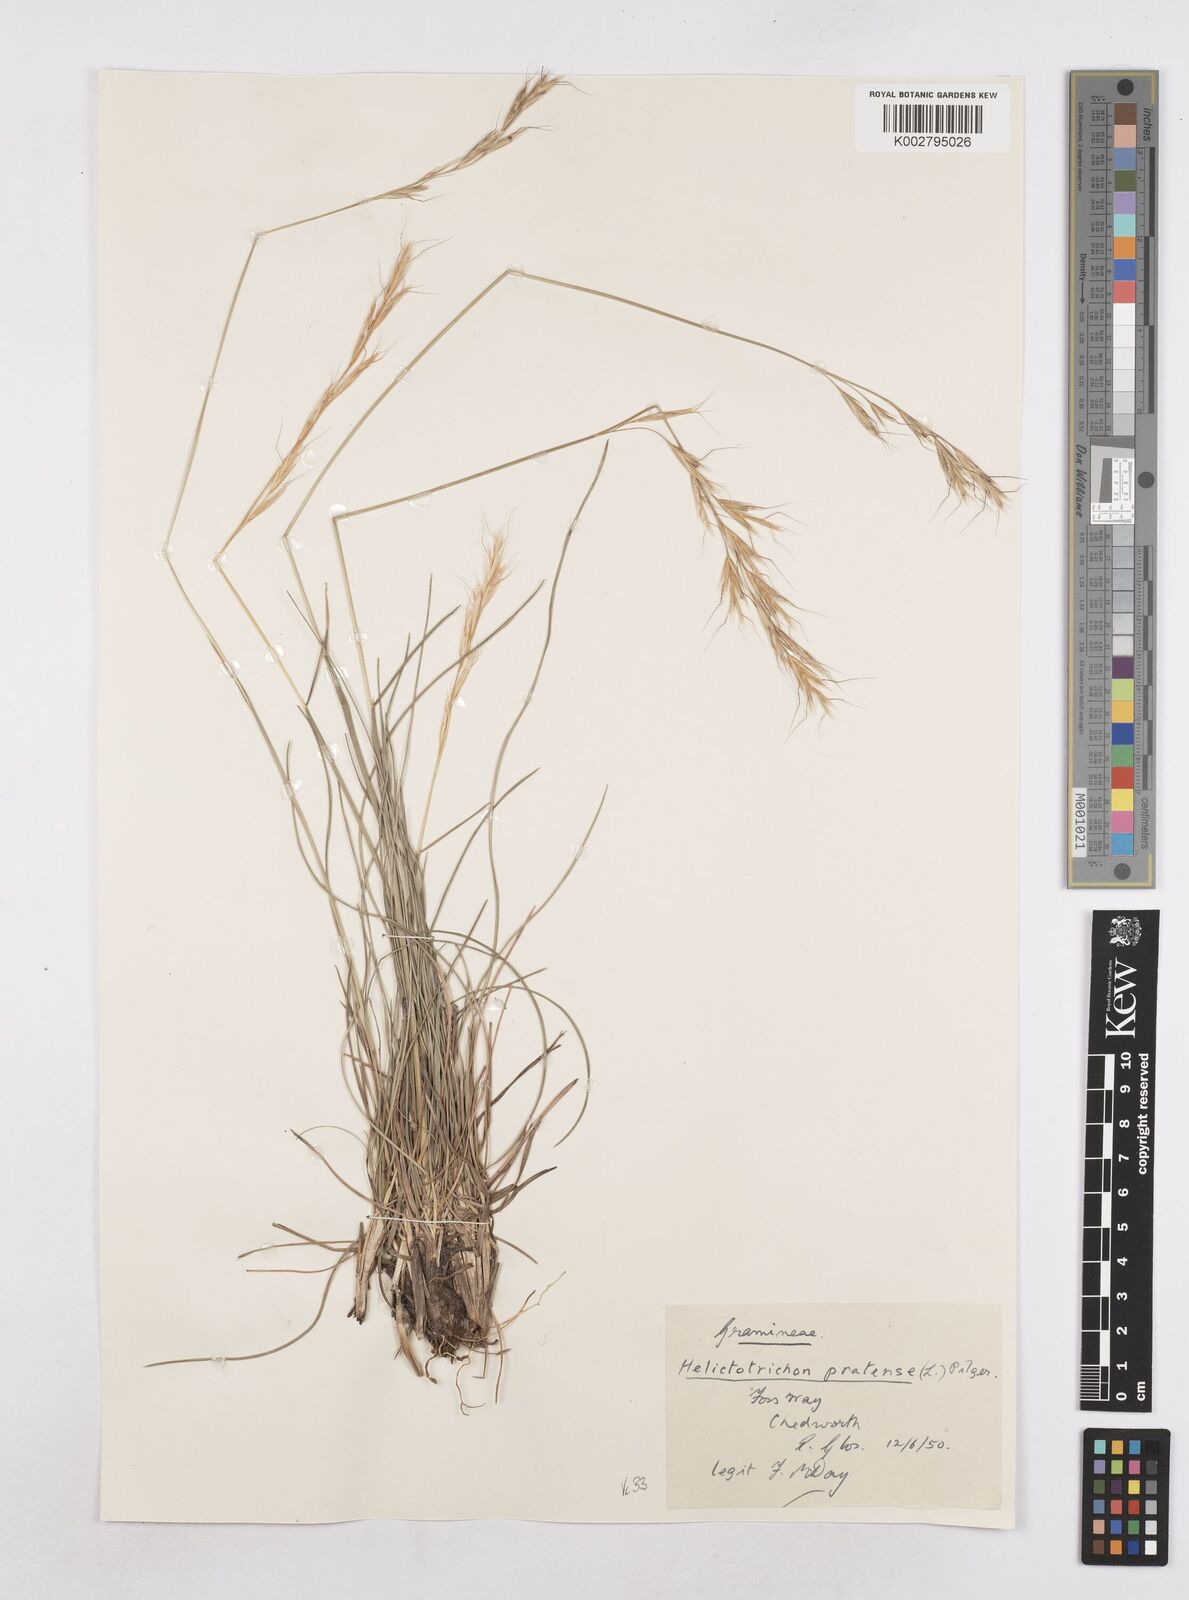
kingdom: Plantae
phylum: Tracheophyta
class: Liliopsida
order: Poales
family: Poaceae
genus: Helictochloa
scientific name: Helictochloa pratensis
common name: Meadow oat grass
